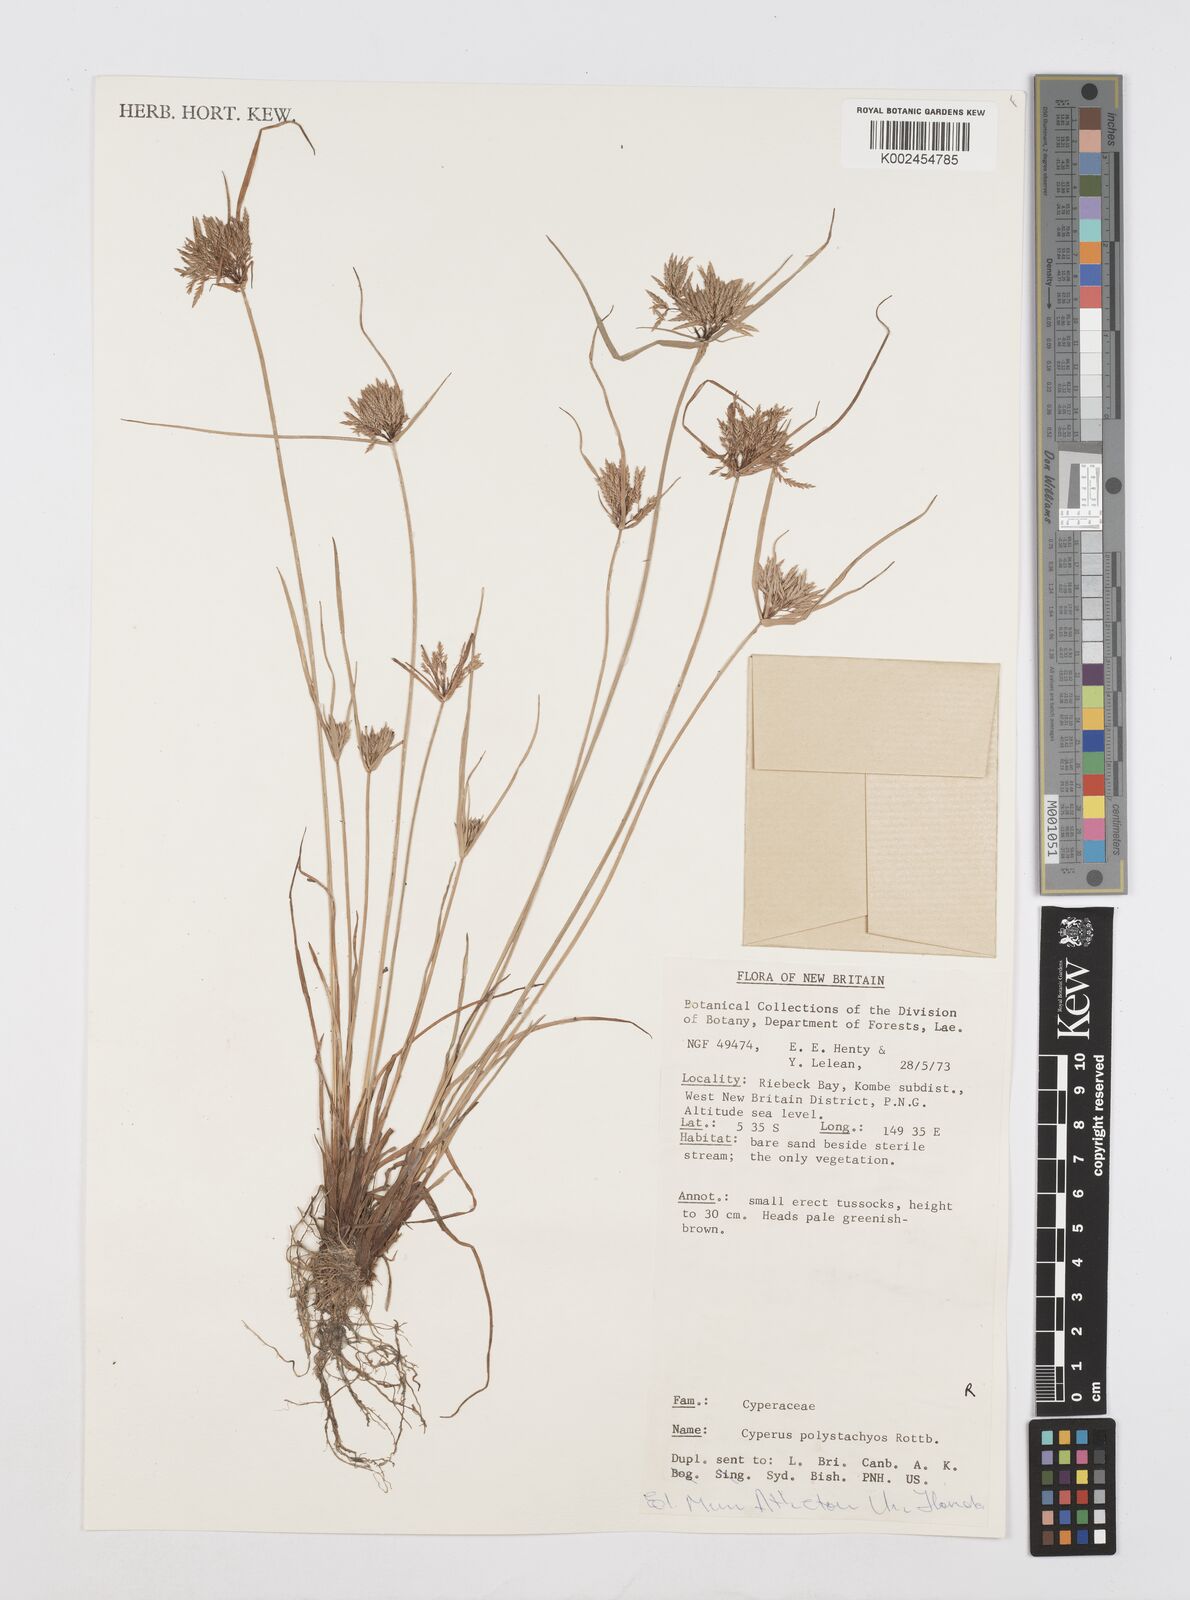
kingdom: Plantae
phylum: Tracheophyta
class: Liliopsida
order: Poales
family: Cyperaceae
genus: Cyperus
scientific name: Cyperus polystachyos
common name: Bunchy flat sedge
